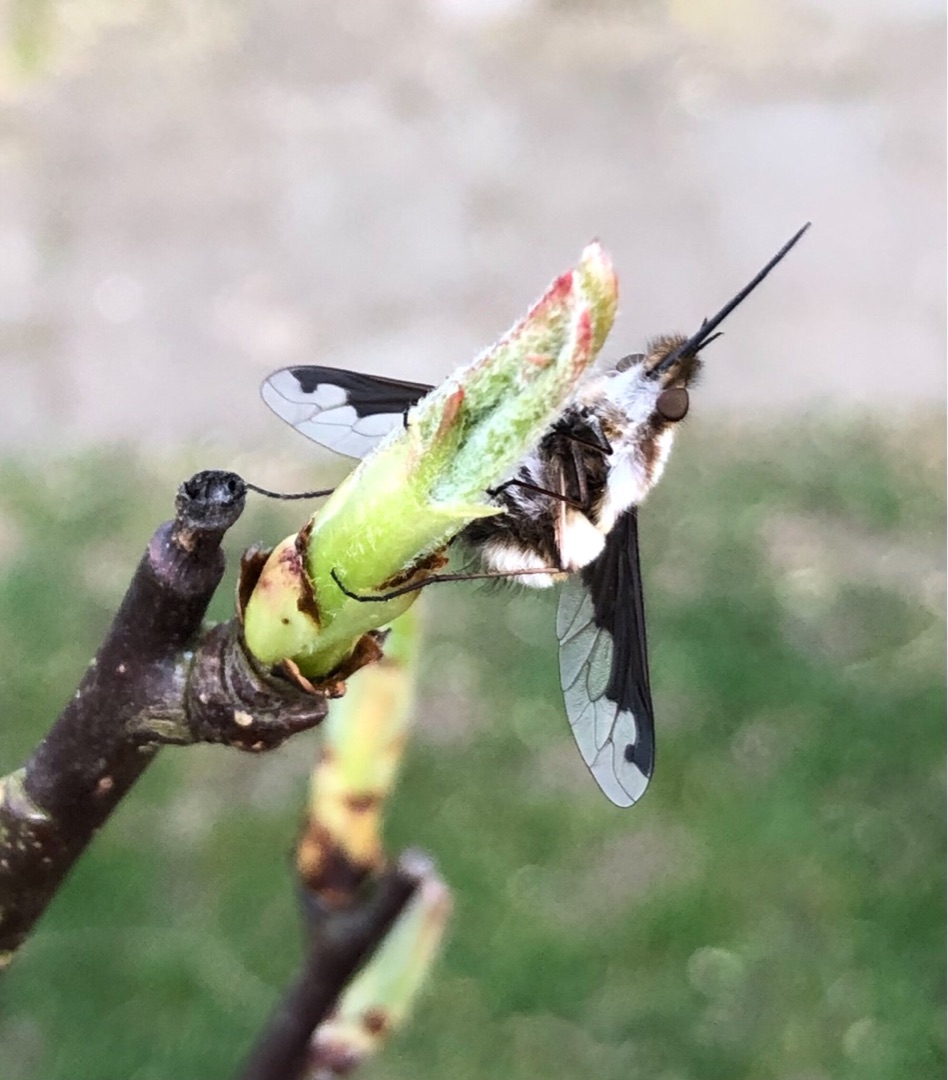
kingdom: Animalia
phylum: Arthropoda
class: Insecta
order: Diptera
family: Bombyliidae
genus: Bombylius
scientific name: Bombylius major
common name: Stor humleflue
